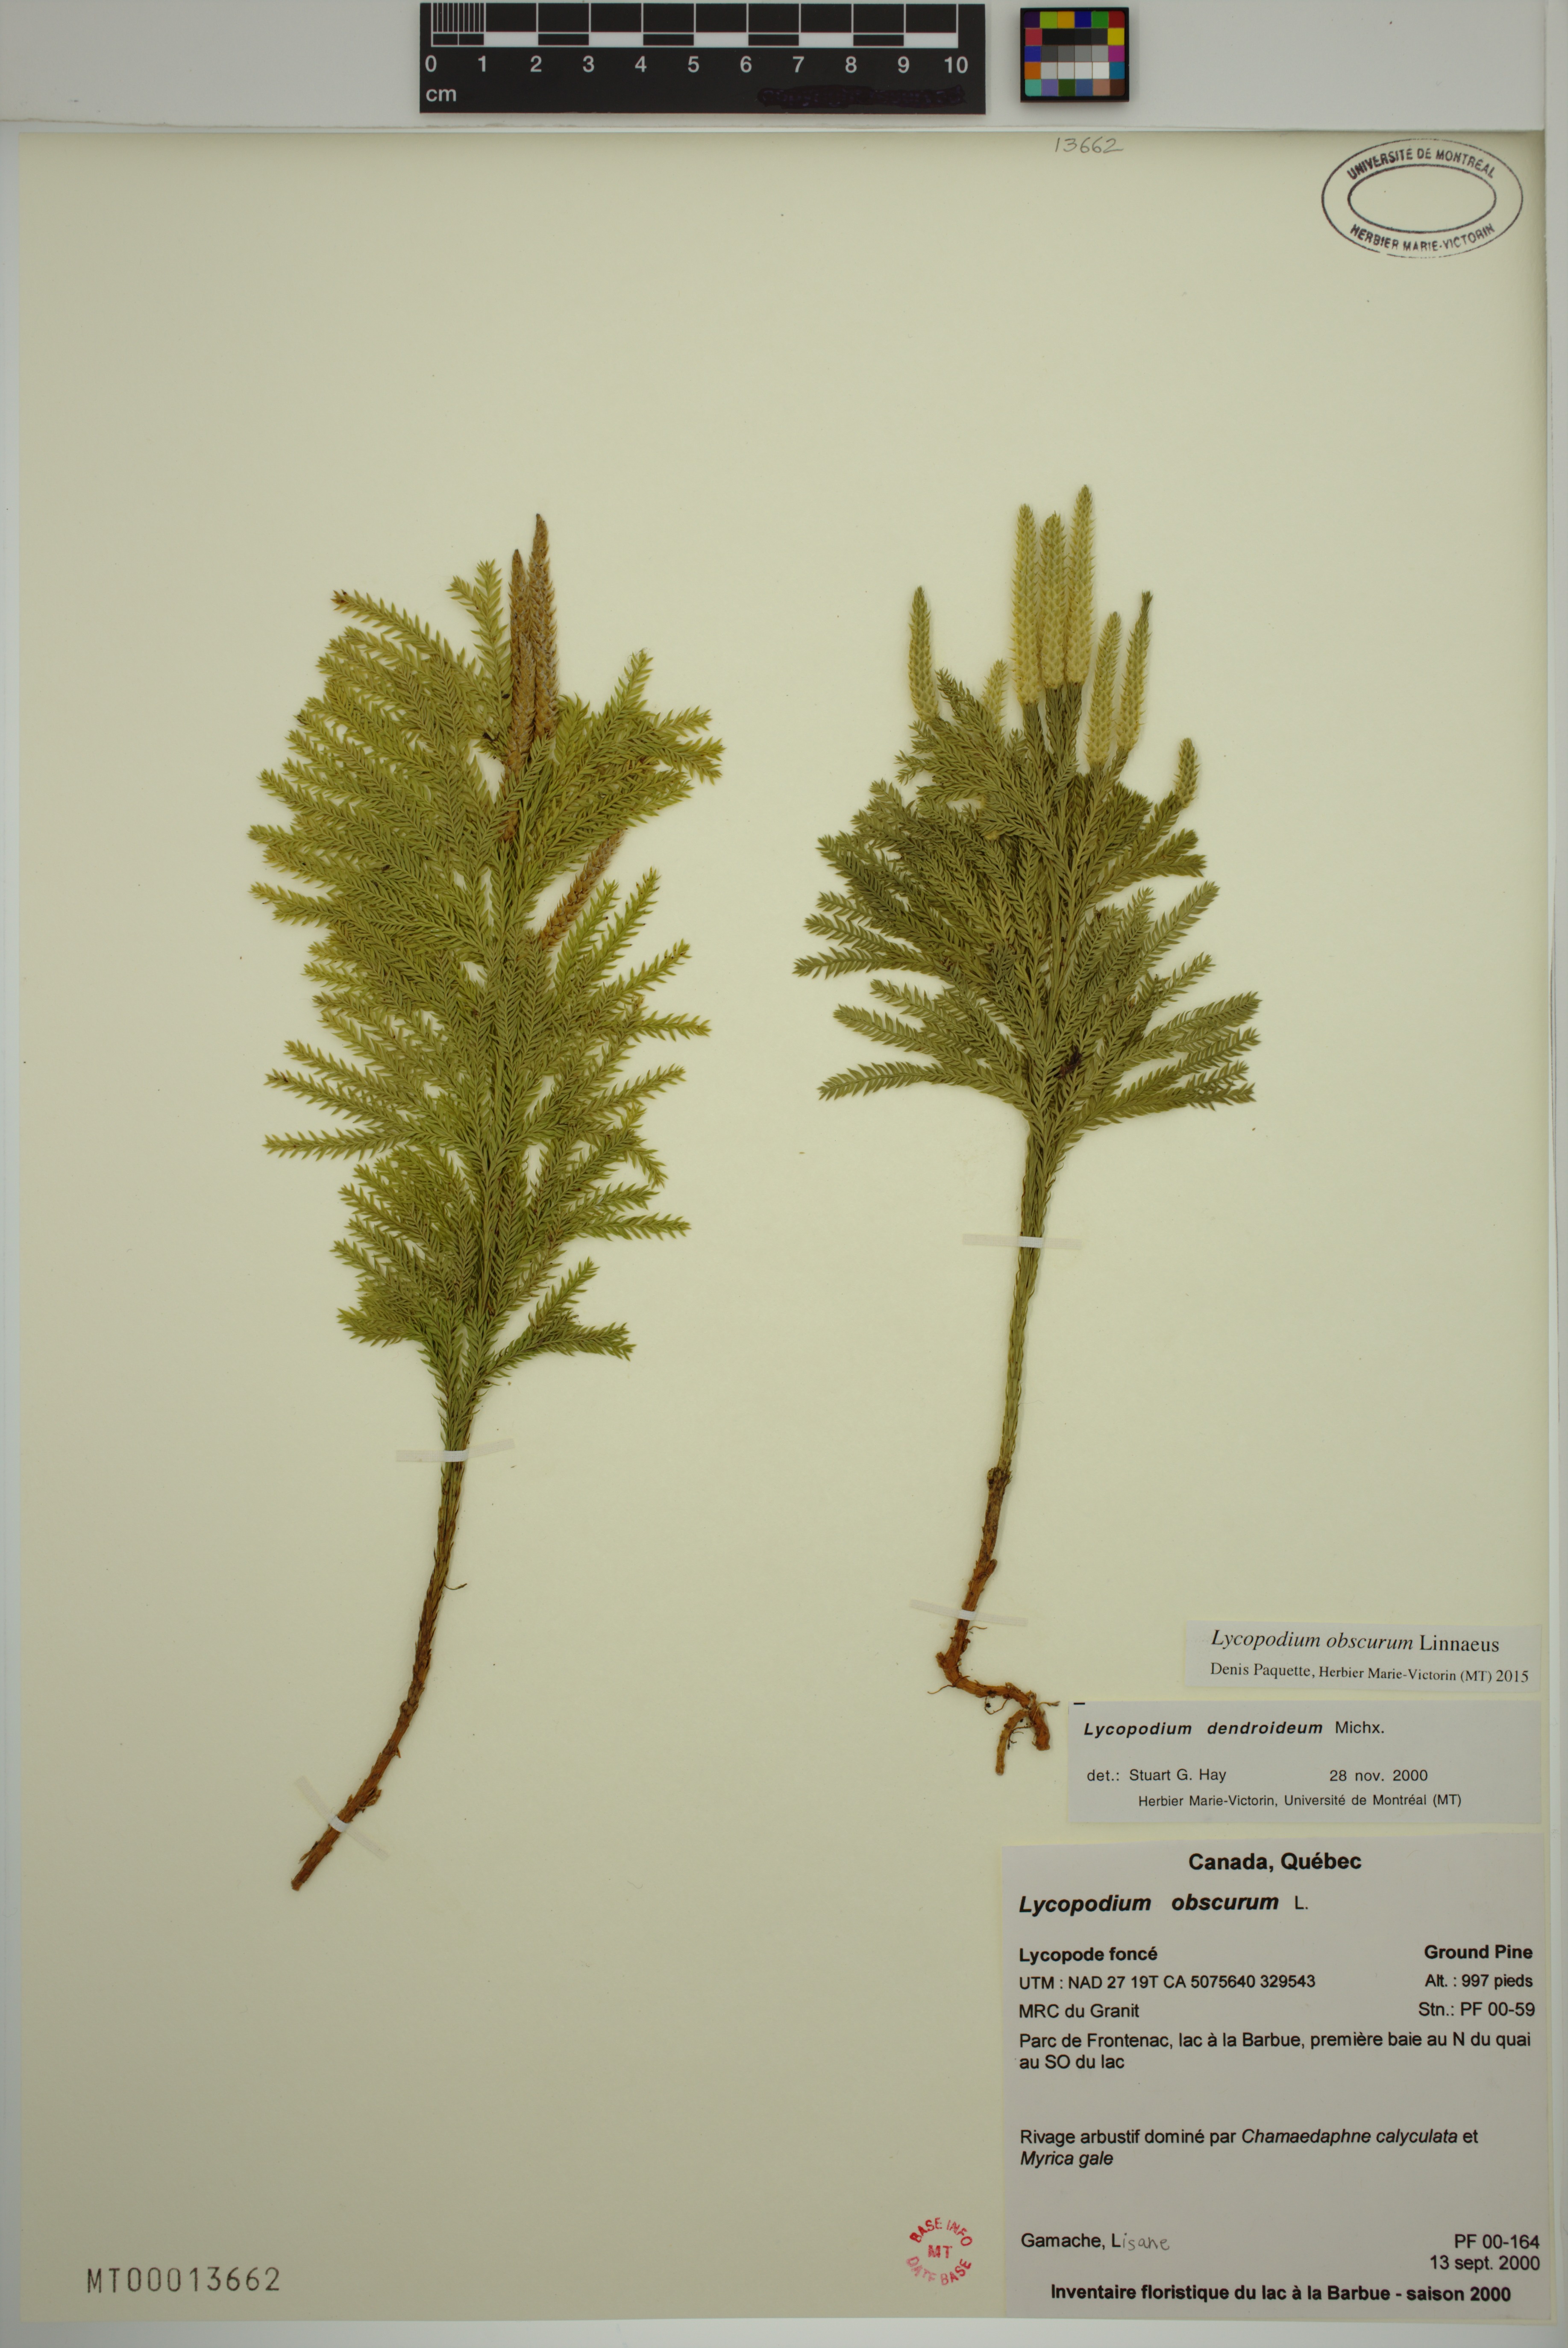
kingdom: Plantae
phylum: Tracheophyta
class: Lycopodiopsida
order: Lycopodiales
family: Lycopodiaceae
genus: Dendrolycopodium
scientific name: Dendrolycopodium obscurum
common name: Common ground-pine
